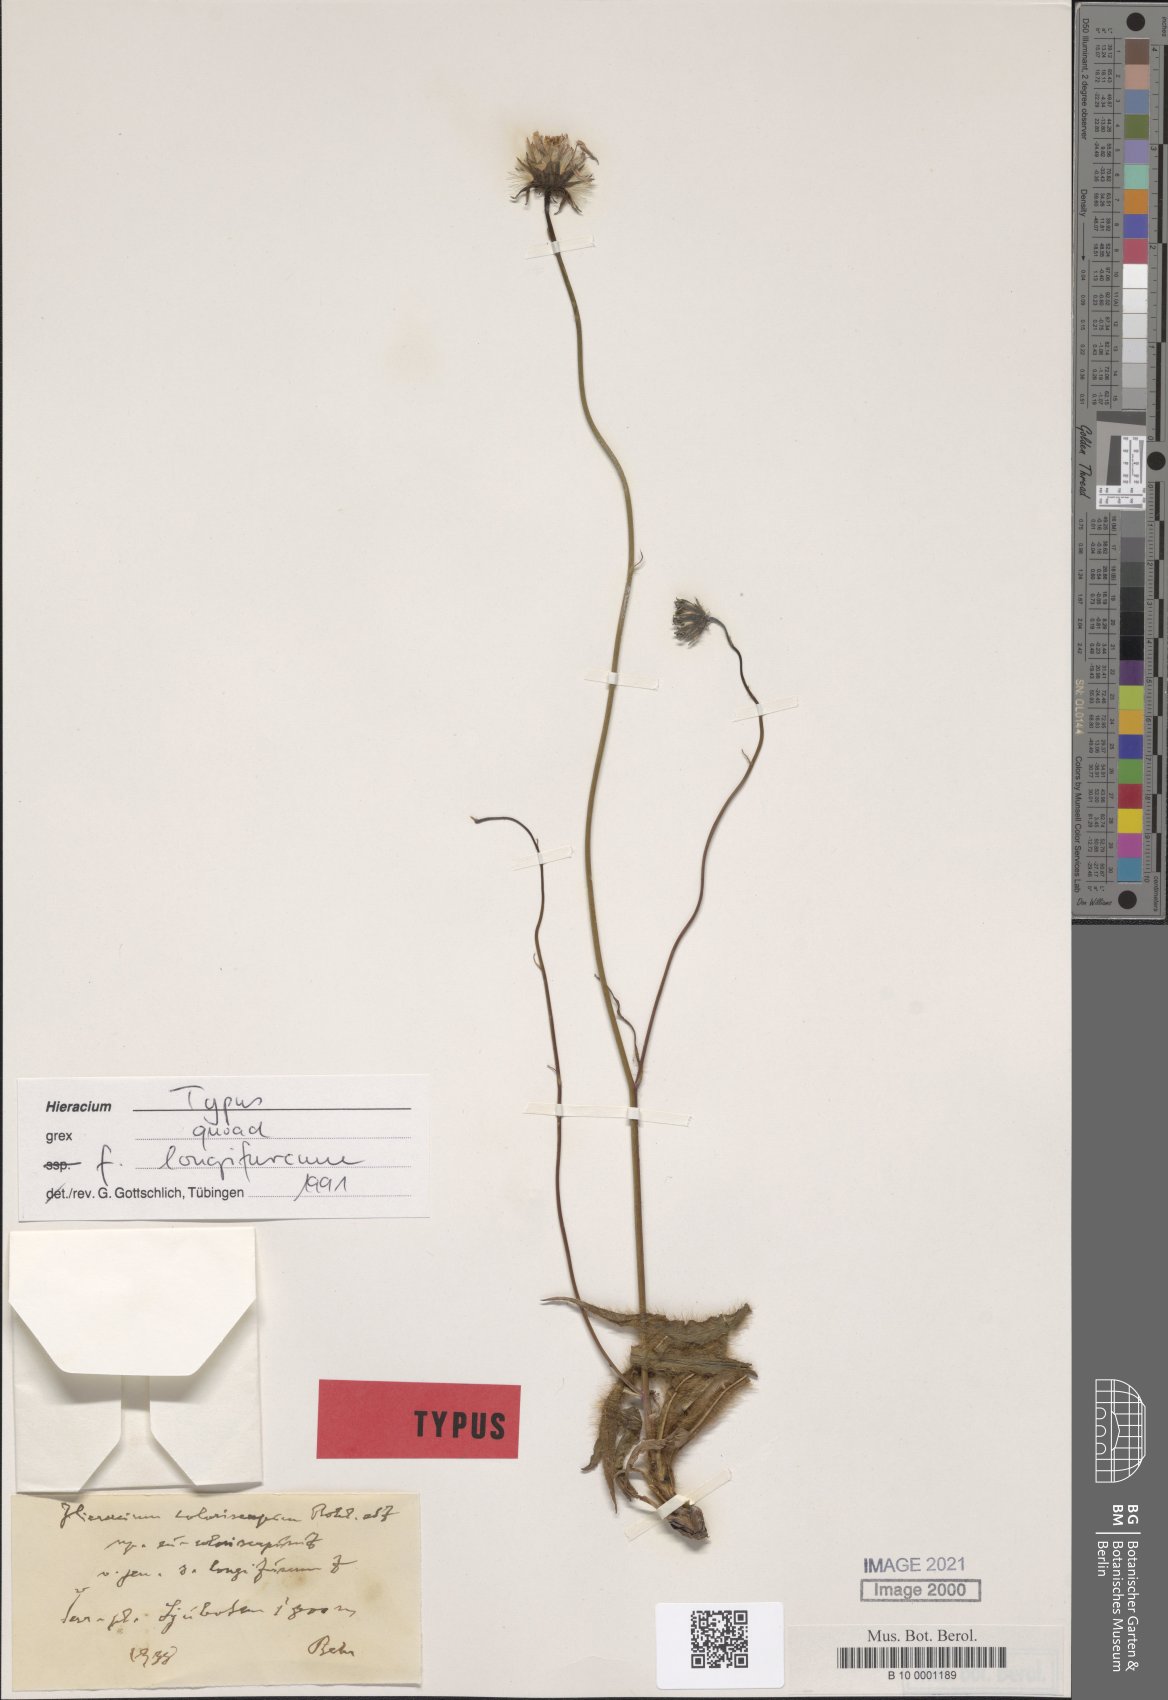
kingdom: Plantae
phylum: Tracheophyta
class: Magnoliopsida
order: Asterales
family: Asteraceae
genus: Hieracium
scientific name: Hieracium coloriscapum
